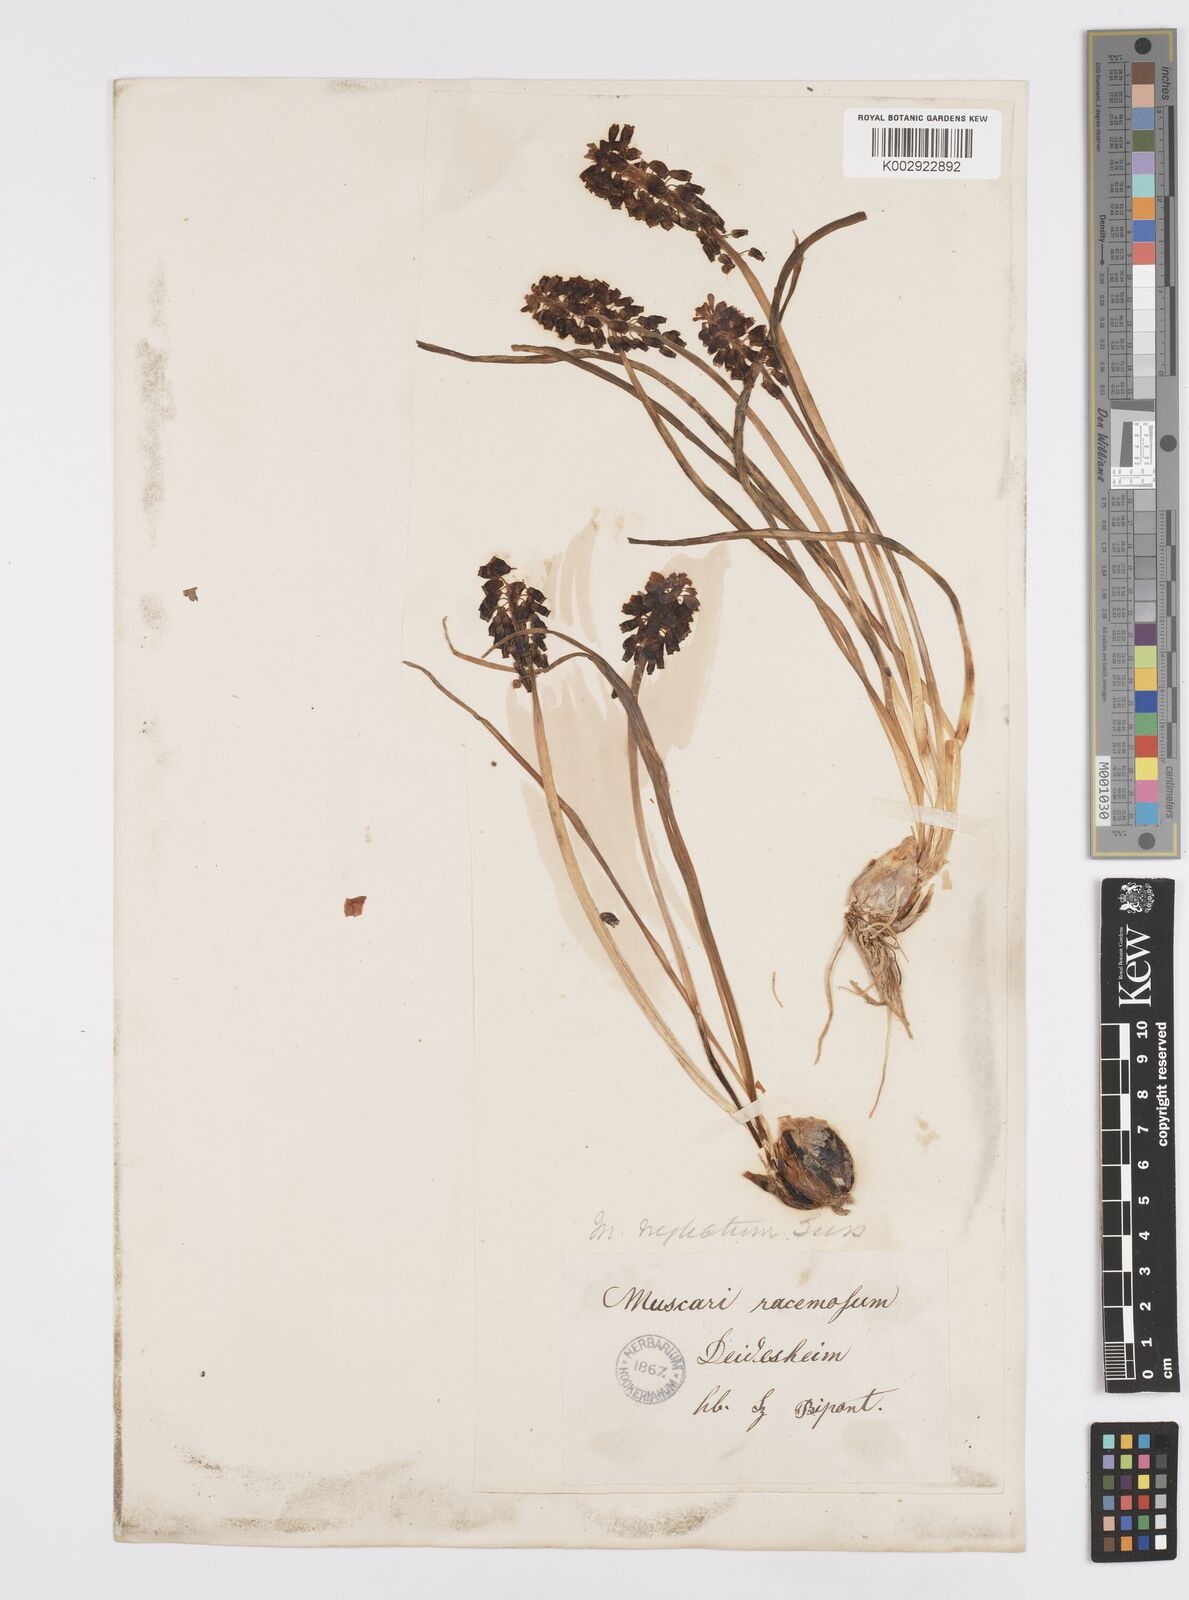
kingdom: Plantae
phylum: Tracheophyta
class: Liliopsida
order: Asparagales
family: Asparagaceae
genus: Muscari
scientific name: Muscari neglectum
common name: Grape-hyacinth
